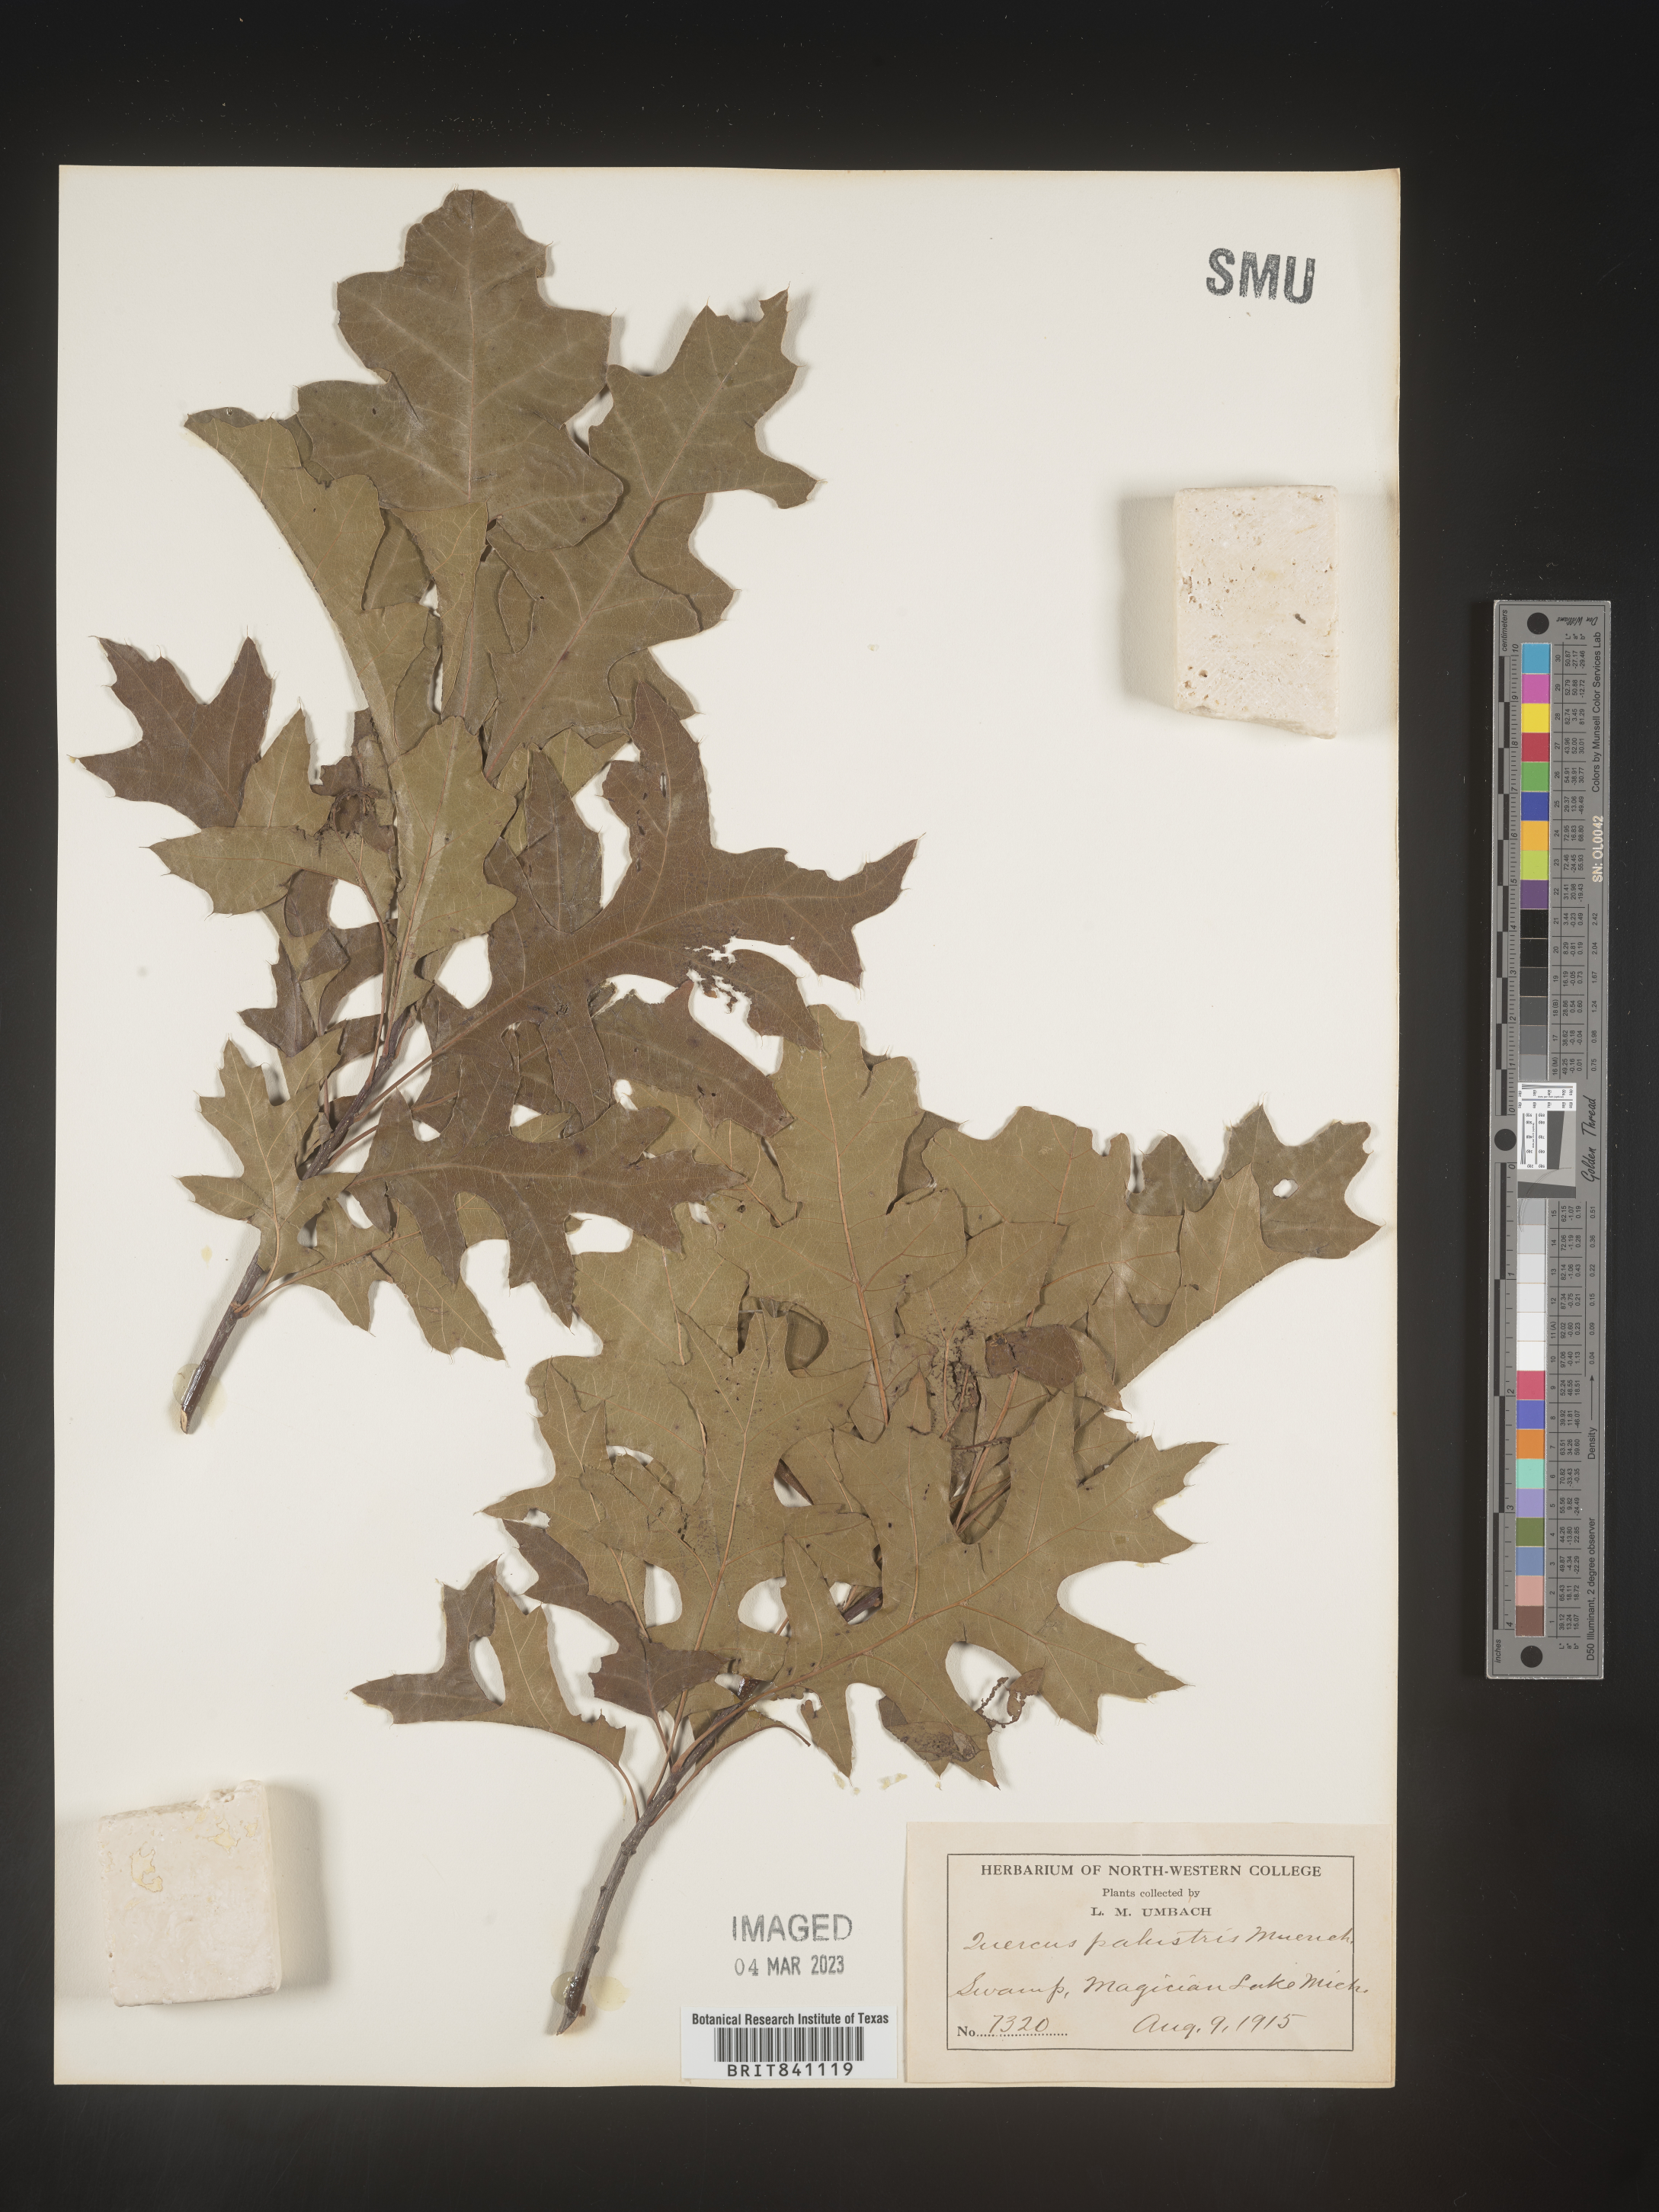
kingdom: Plantae
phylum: Tracheophyta
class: Magnoliopsida
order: Fagales
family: Fagaceae
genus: Quercus
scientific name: Quercus palustris
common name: Pin oak
